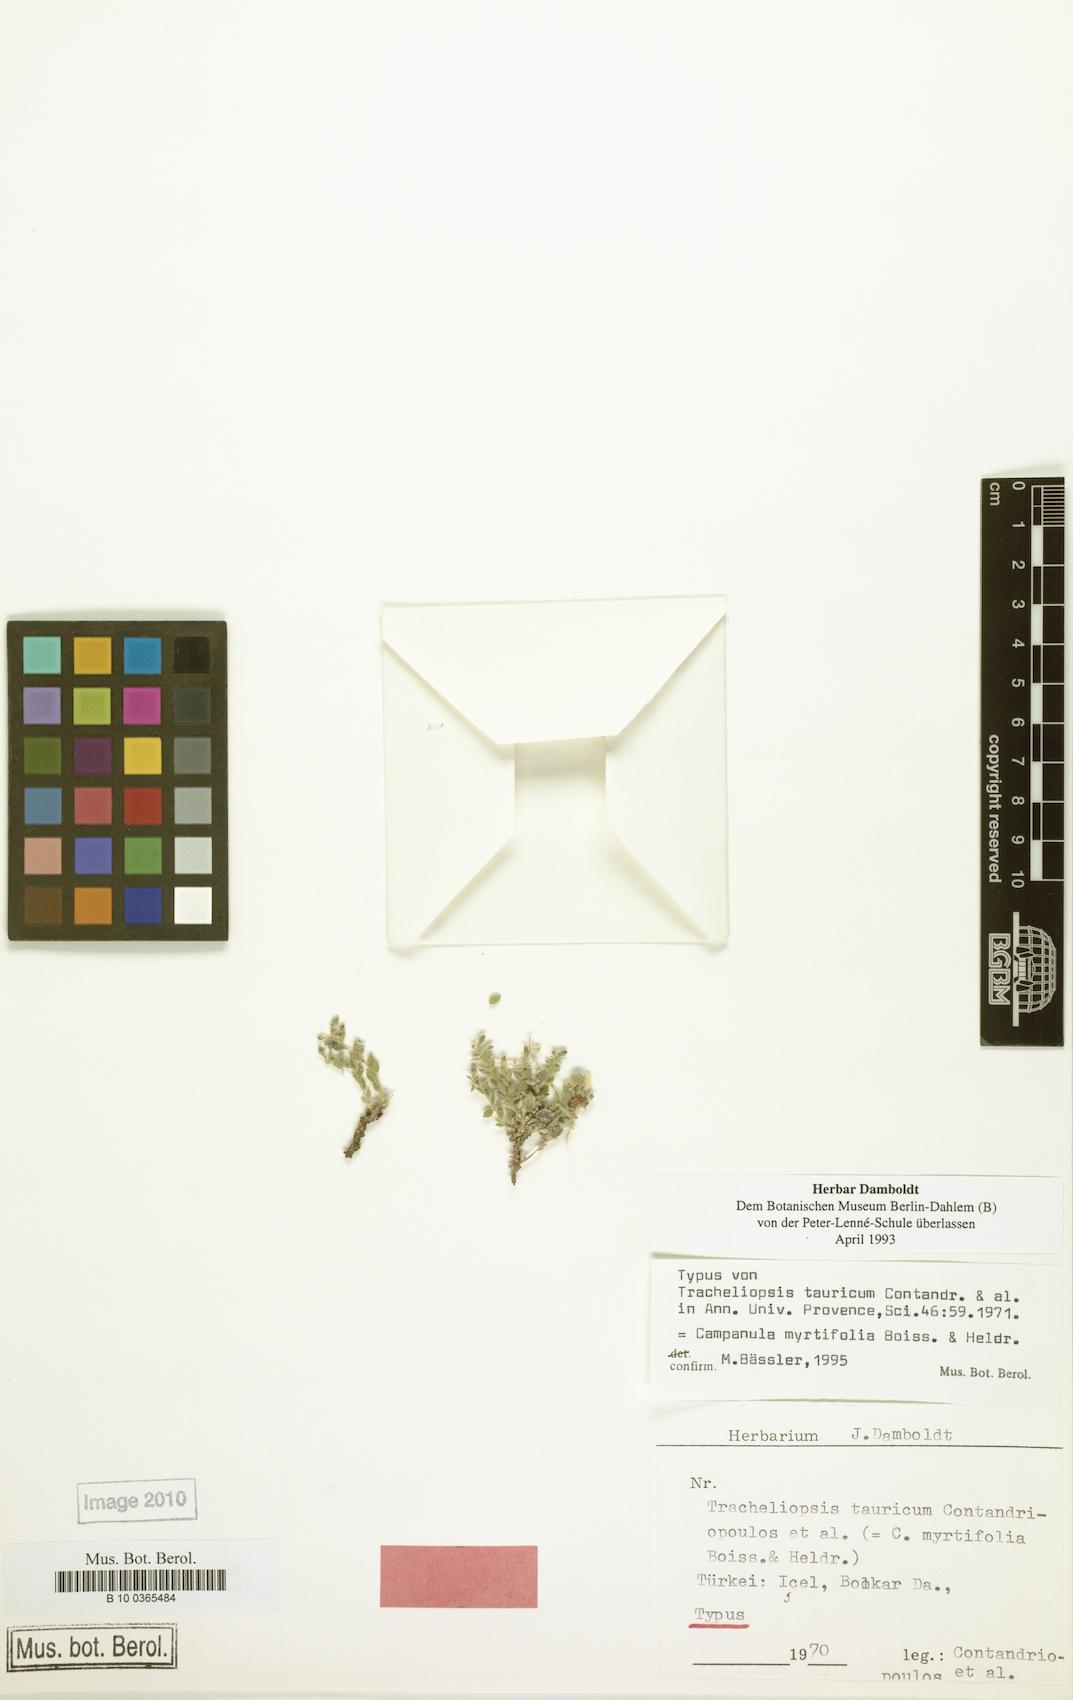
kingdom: Plantae
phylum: Tracheophyta
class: Magnoliopsida
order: Asterales
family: Campanulaceae
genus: Campanula
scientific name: Campanula myrtifolia
